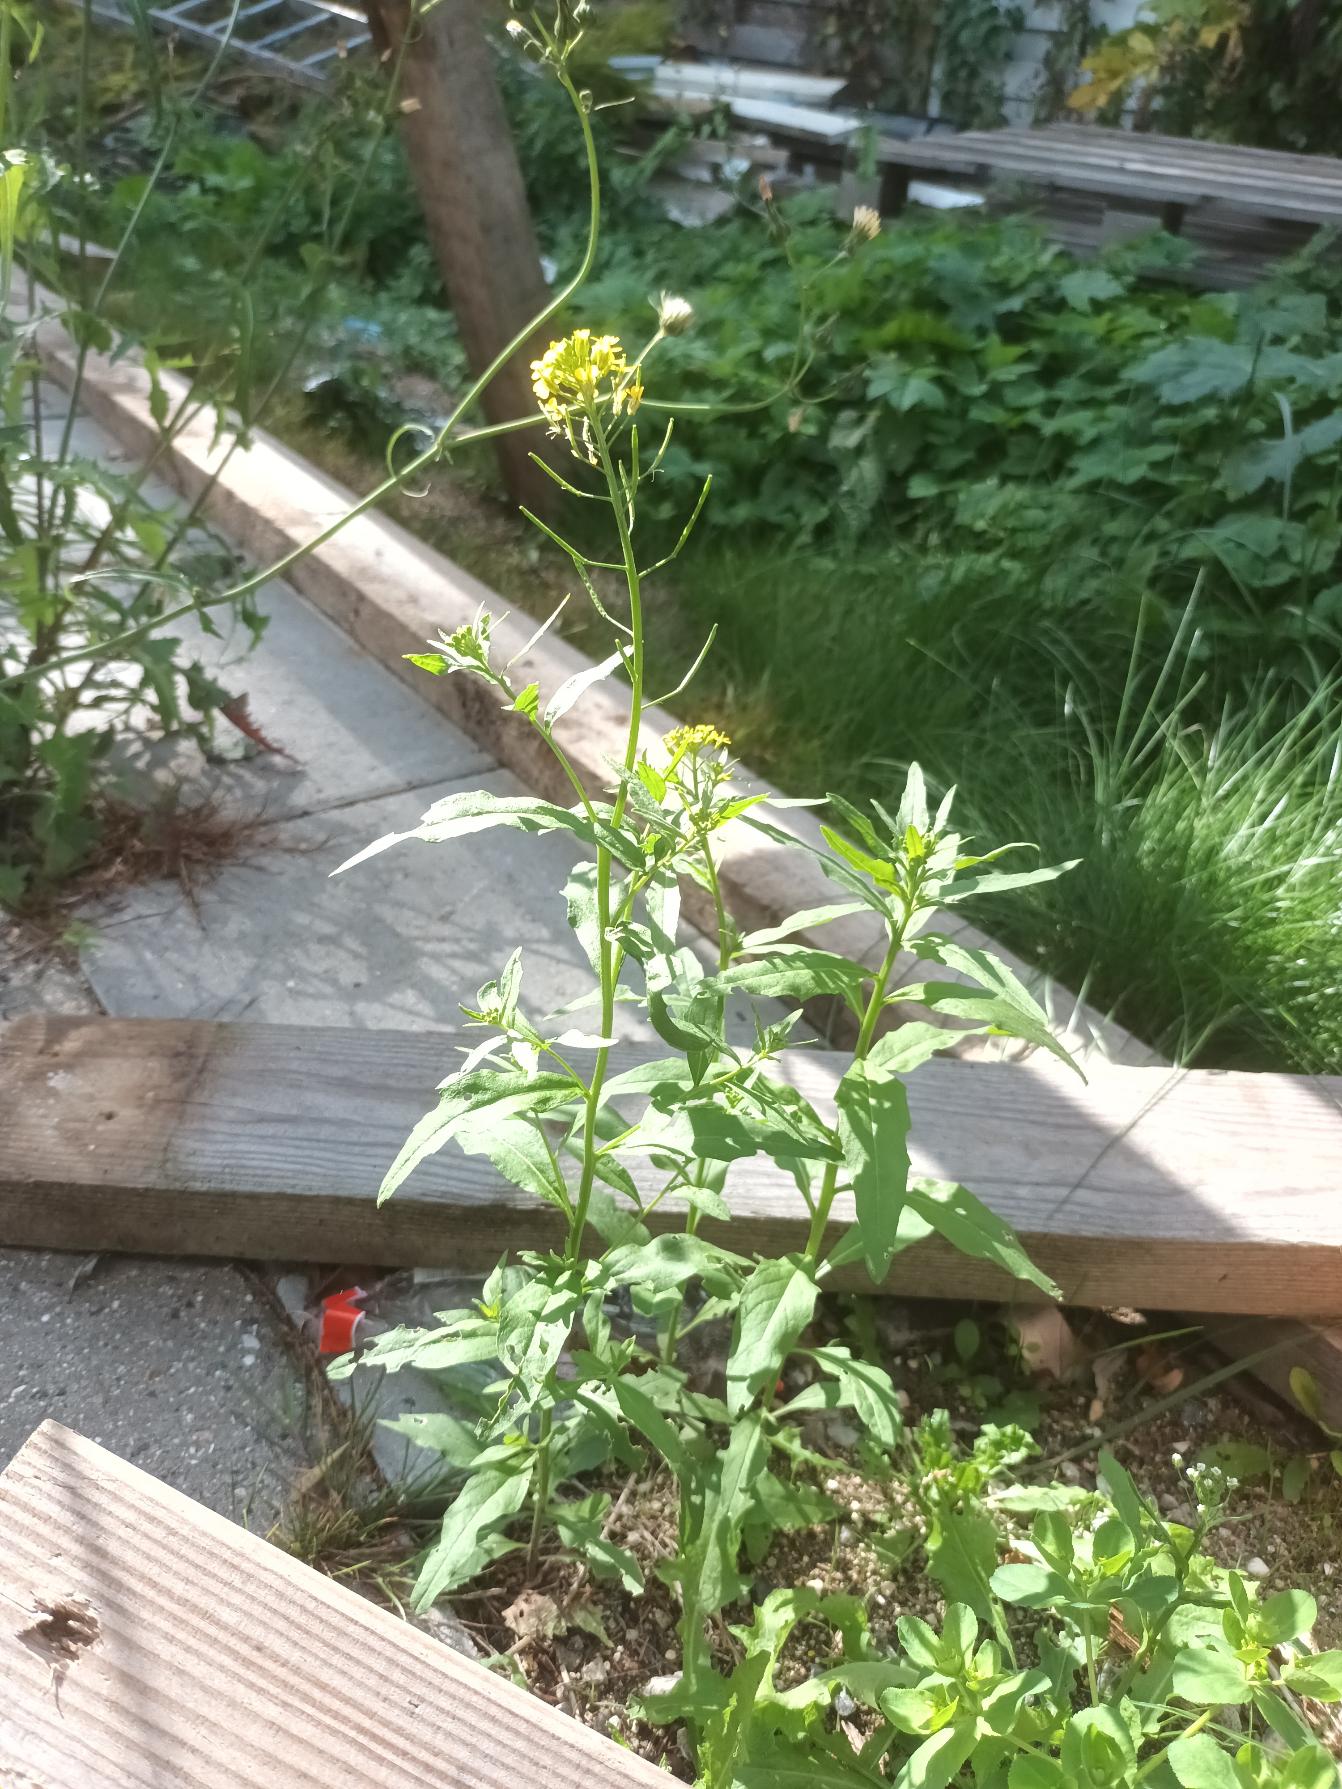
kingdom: Plantae
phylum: Tracheophyta
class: Magnoliopsida
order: Brassicales
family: Brassicaceae
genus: Erysimum
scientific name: Erysimum cheiranthoides
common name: Gyldenlak-hjørneklap
